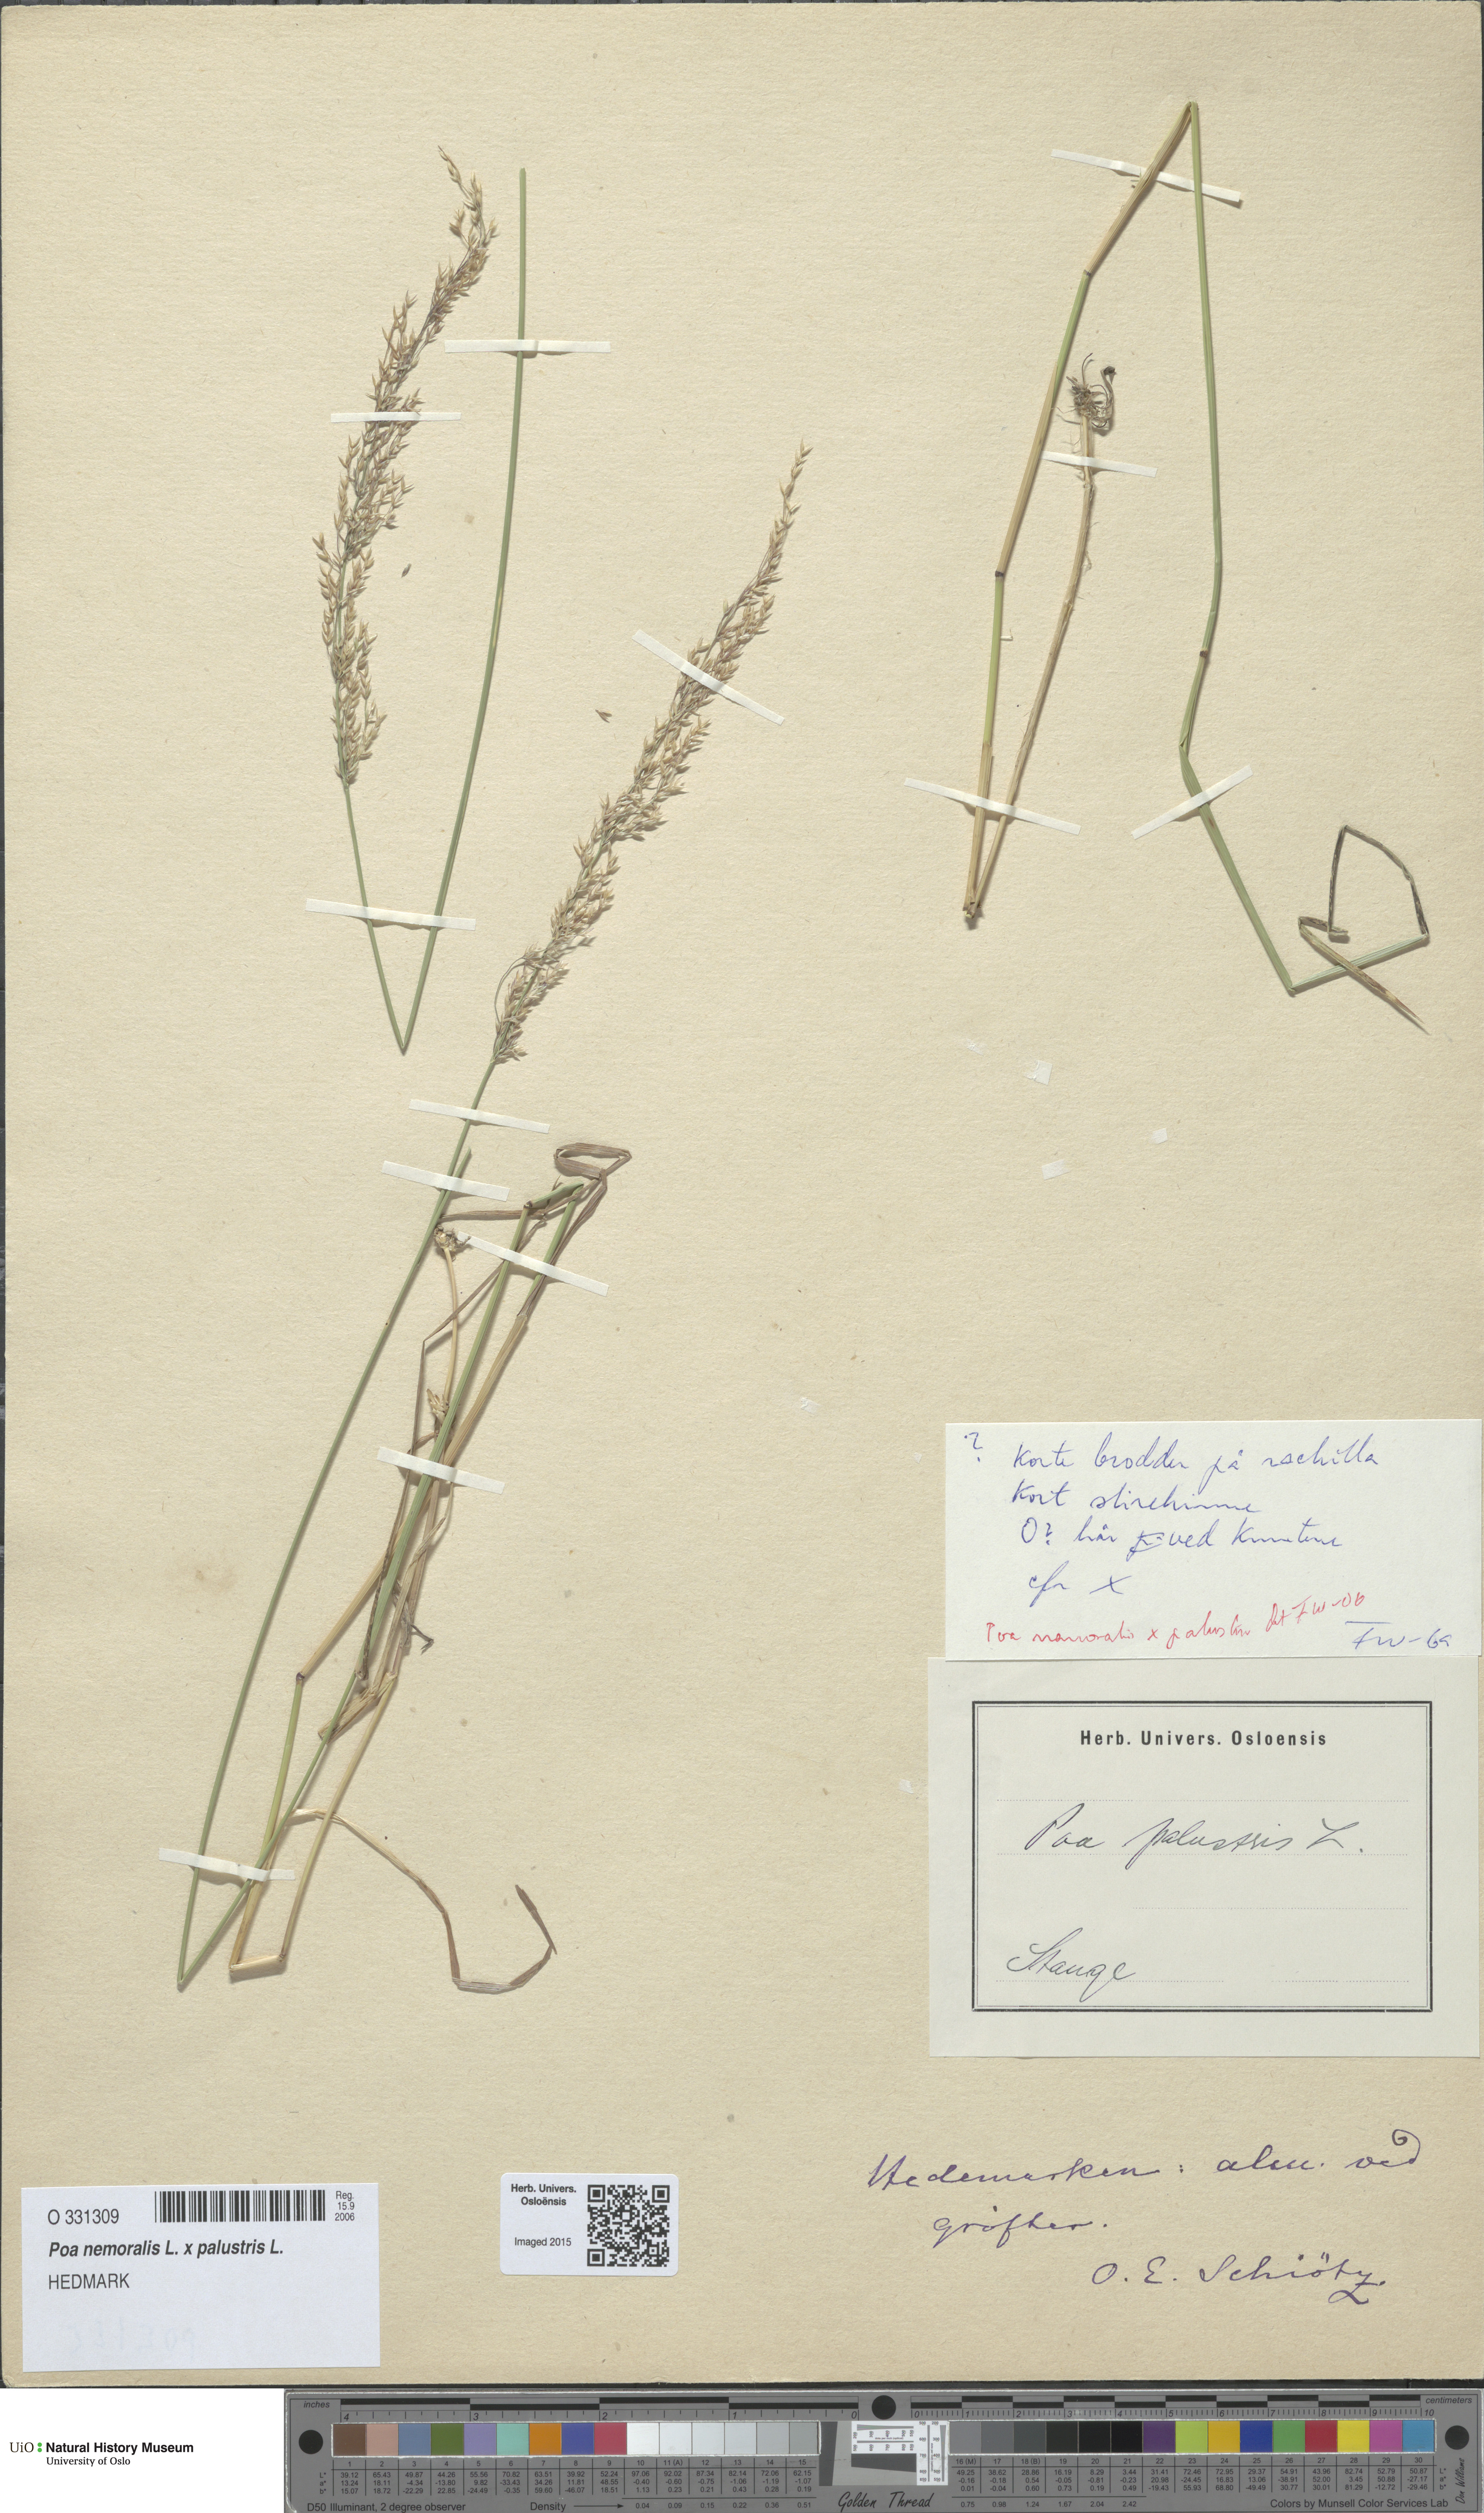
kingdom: Plantae
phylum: Tracheophyta
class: Liliopsida
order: Poales
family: Poaceae
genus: Poa
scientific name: Poa
